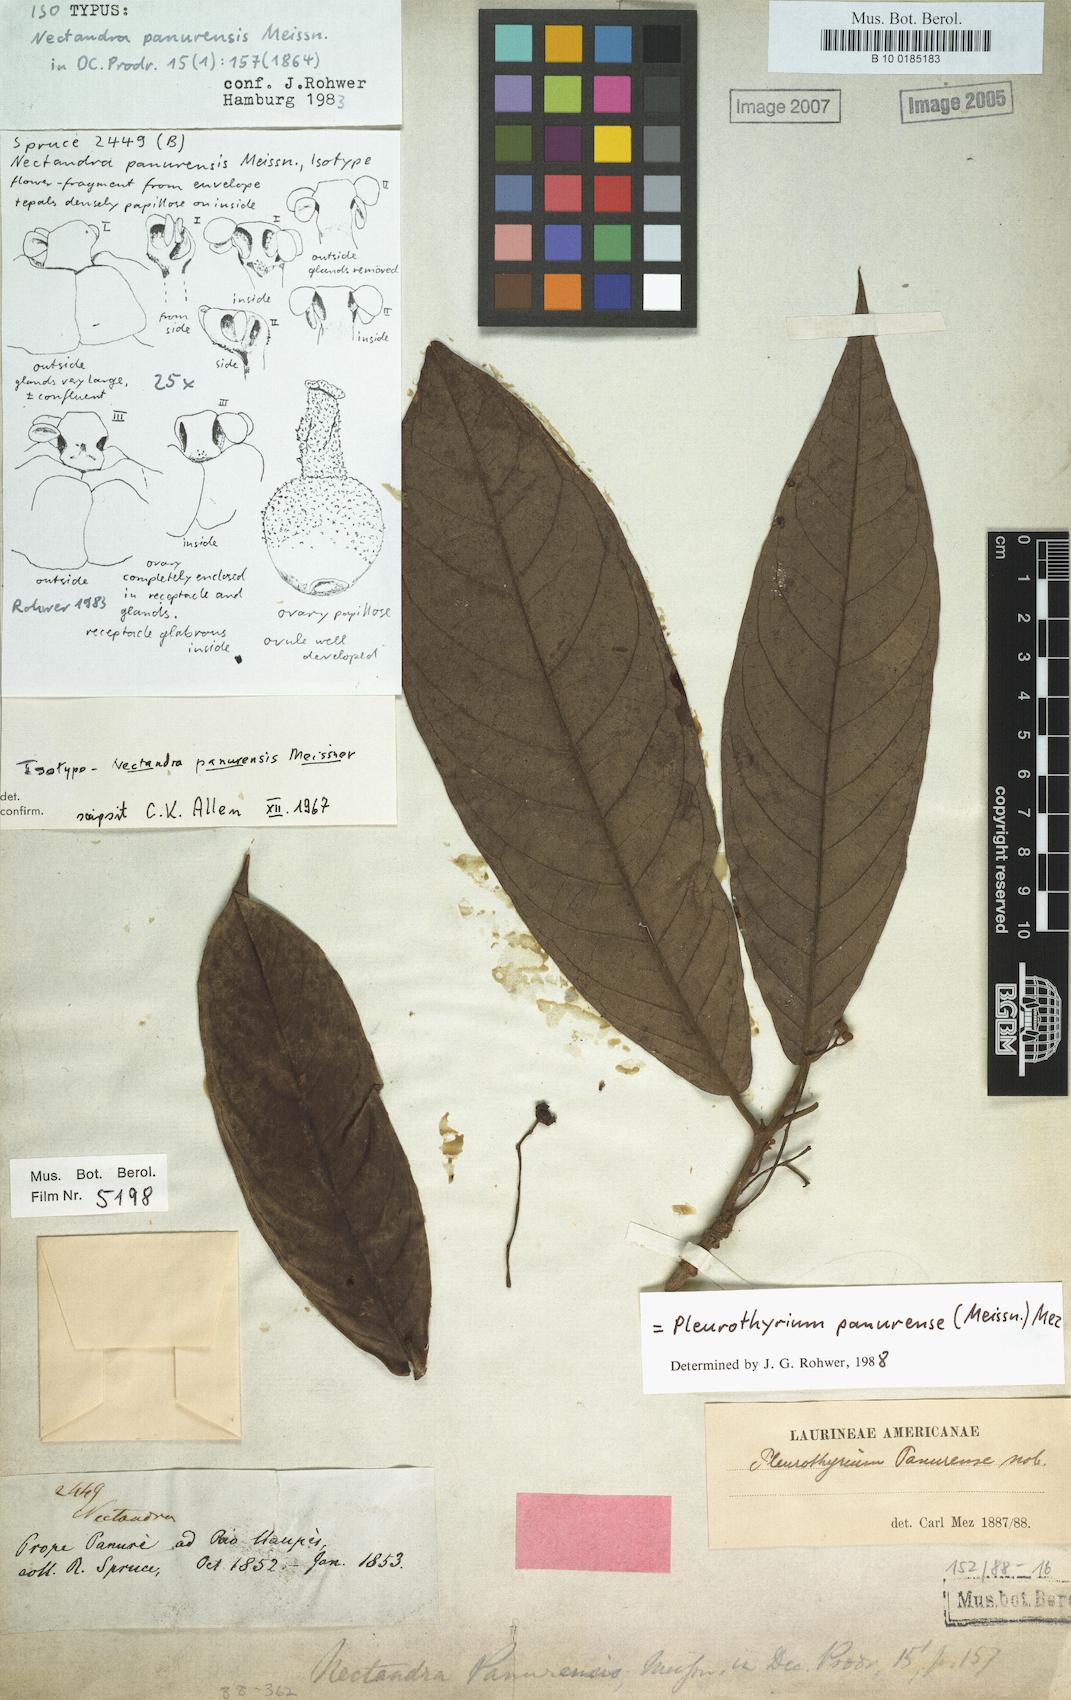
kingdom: Plantae
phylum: Tracheophyta
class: Magnoliopsida
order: Laurales
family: Lauraceae
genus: Pleurothyrium
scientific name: Pleurothyrium panurense
